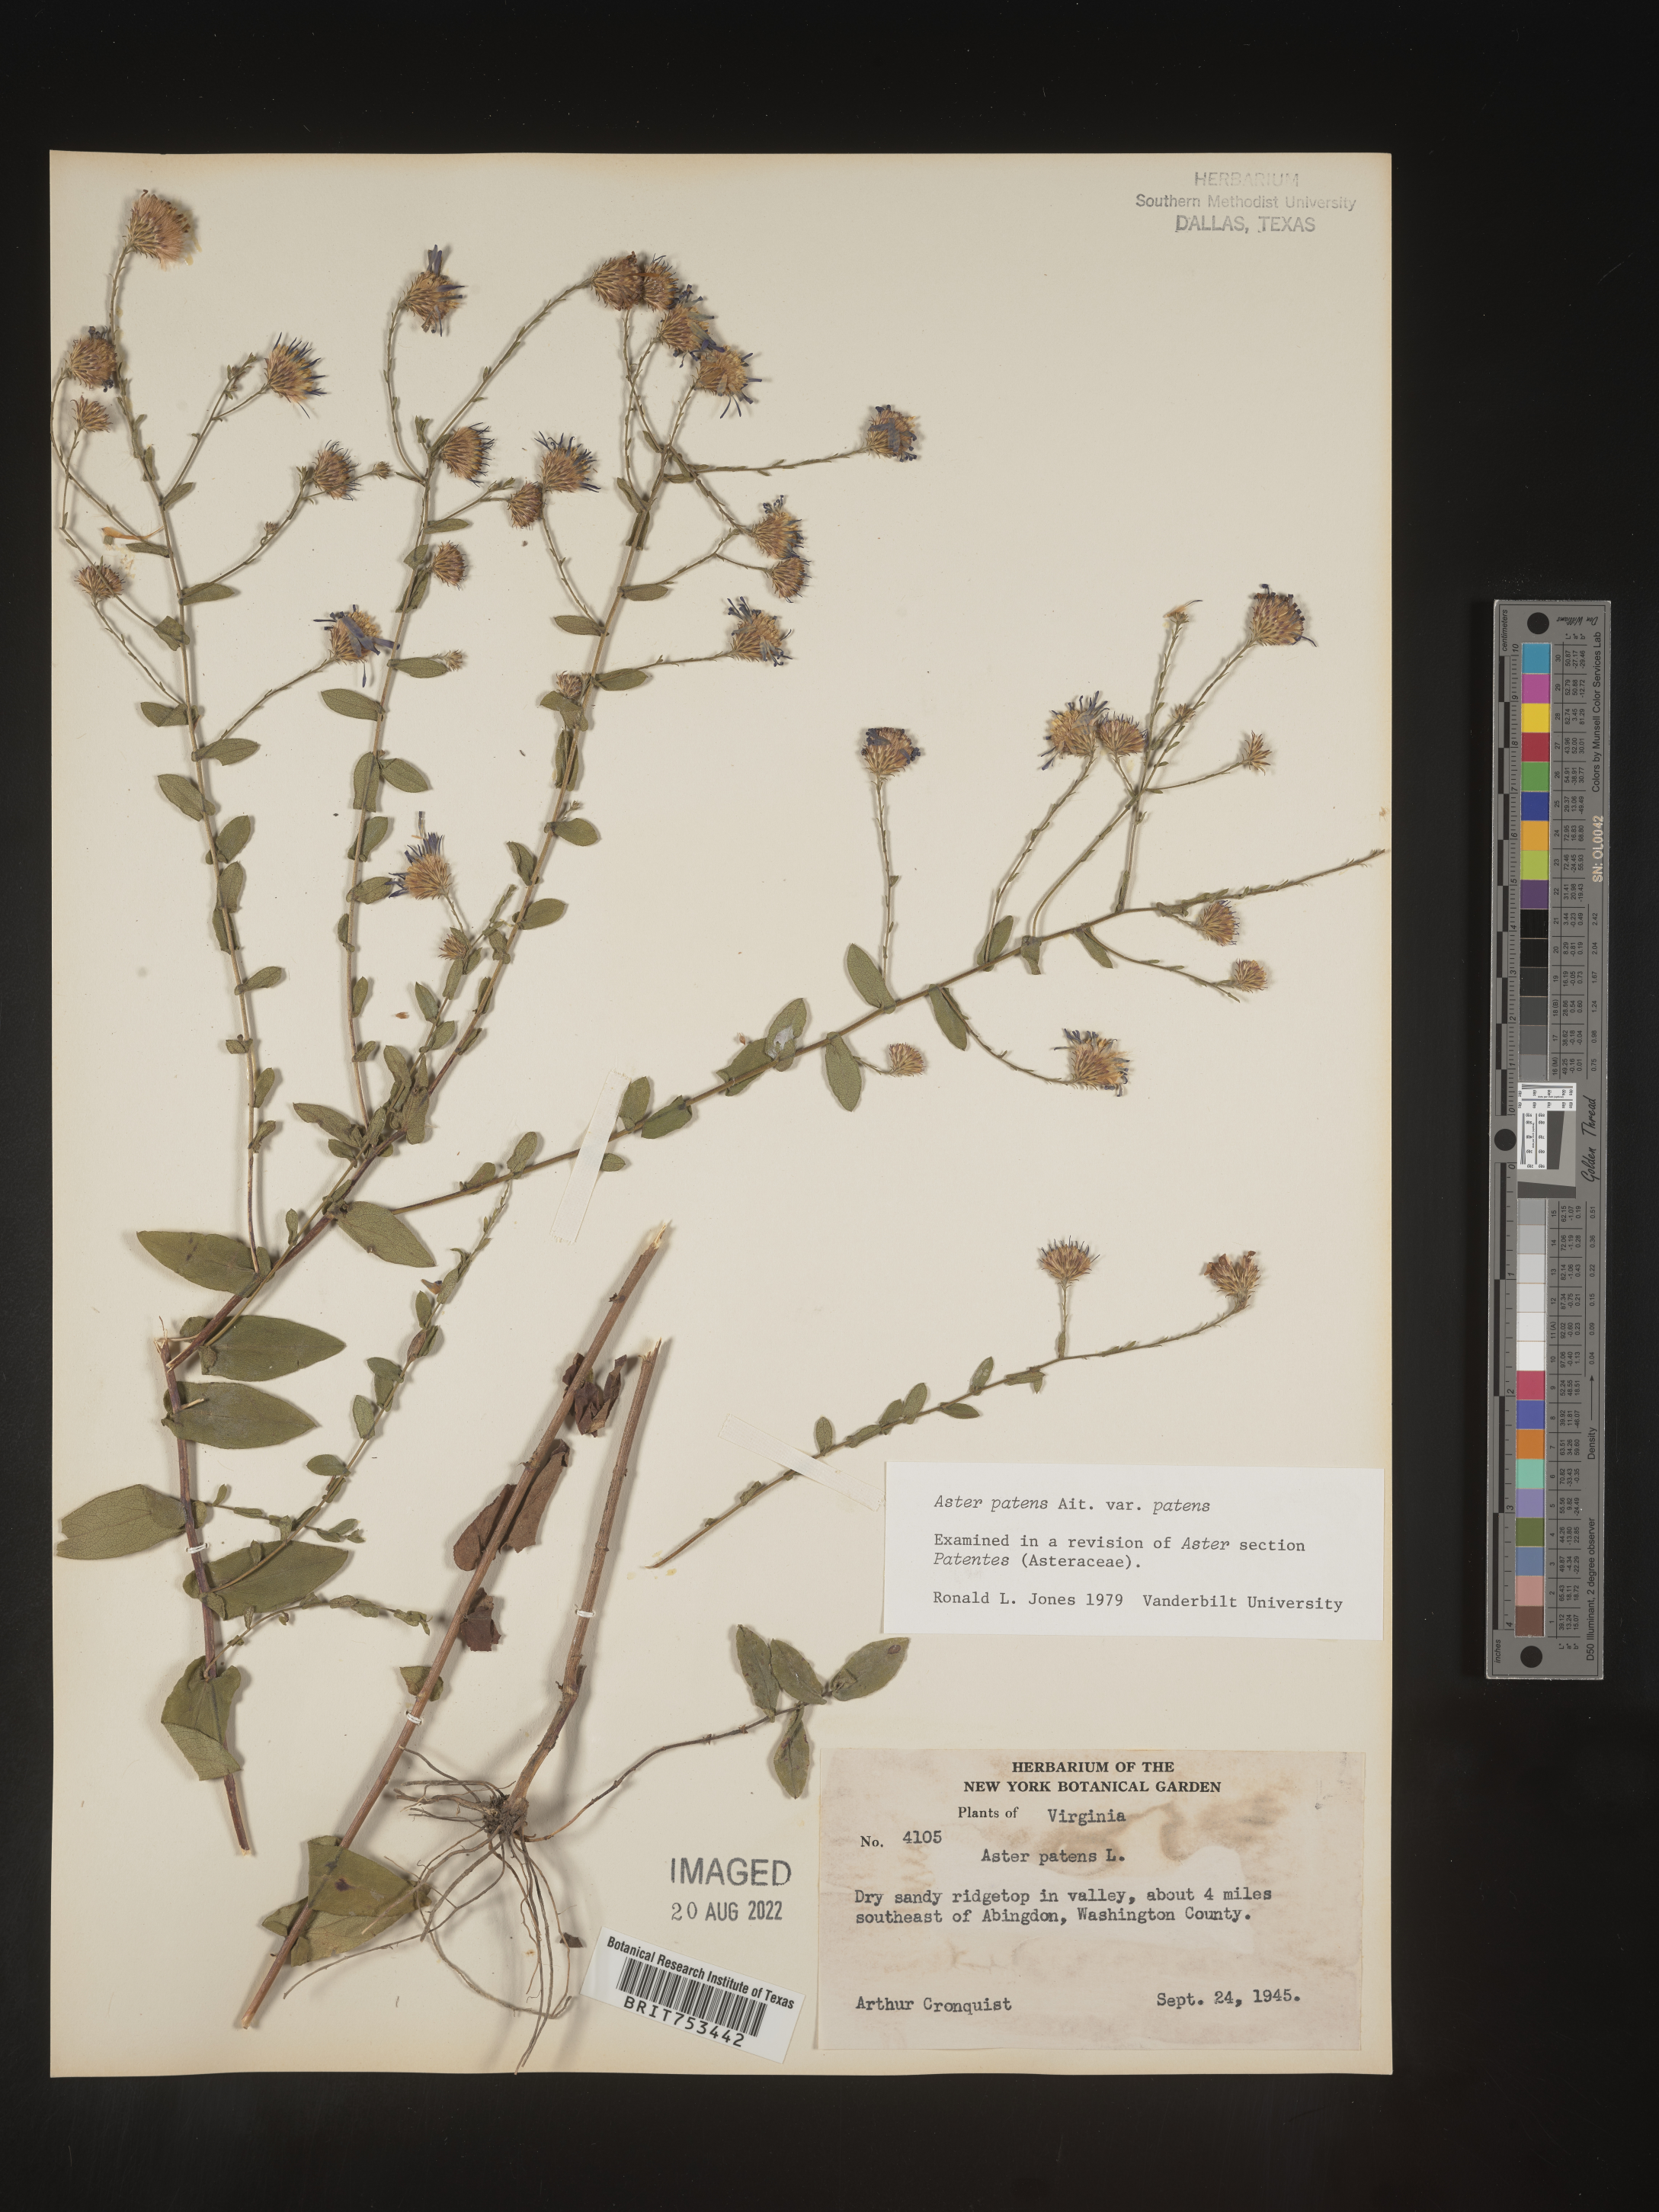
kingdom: Plantae
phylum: Tracheophyta
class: Magnoliopsida
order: Asterales
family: Asteraceae
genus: Symphyotrichum
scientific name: Symphyotrichum patens
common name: Late purple aster
